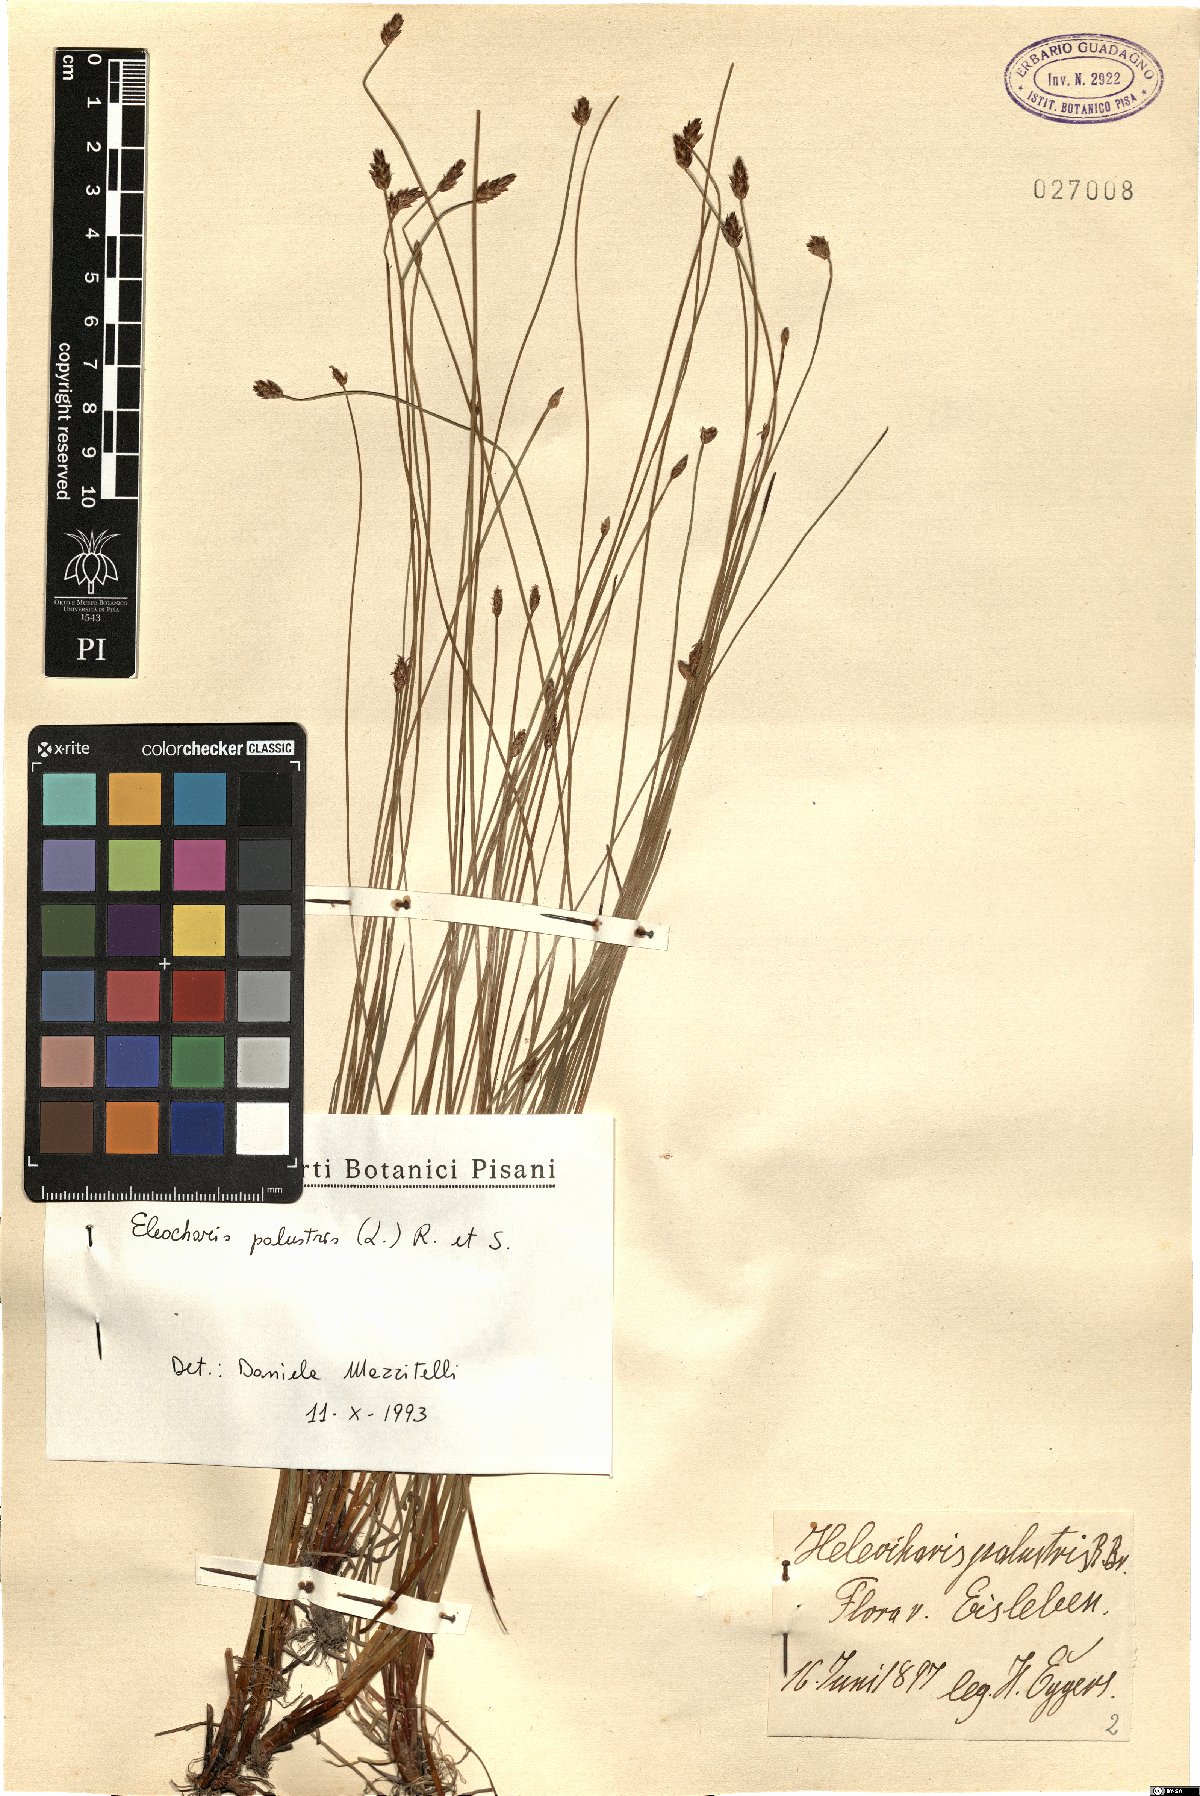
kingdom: Plantae
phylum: Tracheophyta
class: Liliopsida
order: Poales
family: Cyperaceae
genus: Eleocharis
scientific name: Eleocharis palustris
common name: Common spike-rush
